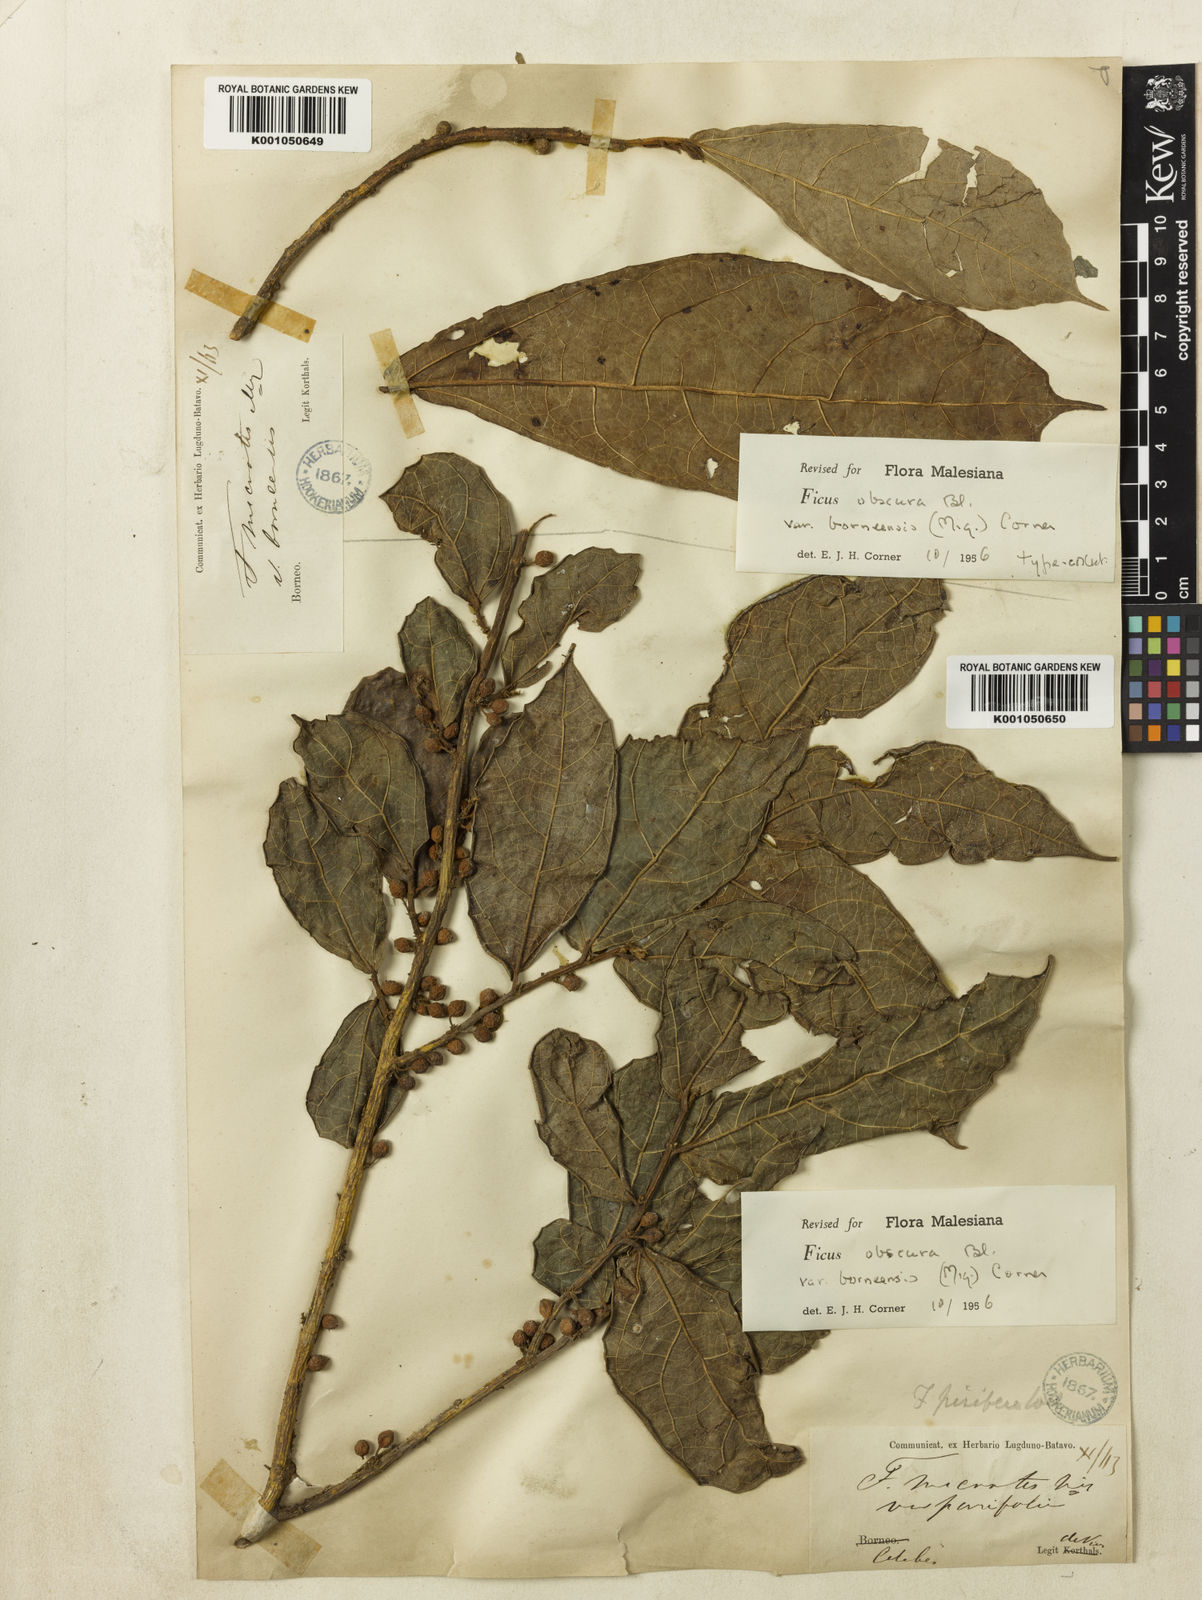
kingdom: Plantae
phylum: Tracheophyta
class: Magnoliopsida
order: Rosales
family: Moraceae
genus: Ficus
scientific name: Ficus scaberrima
